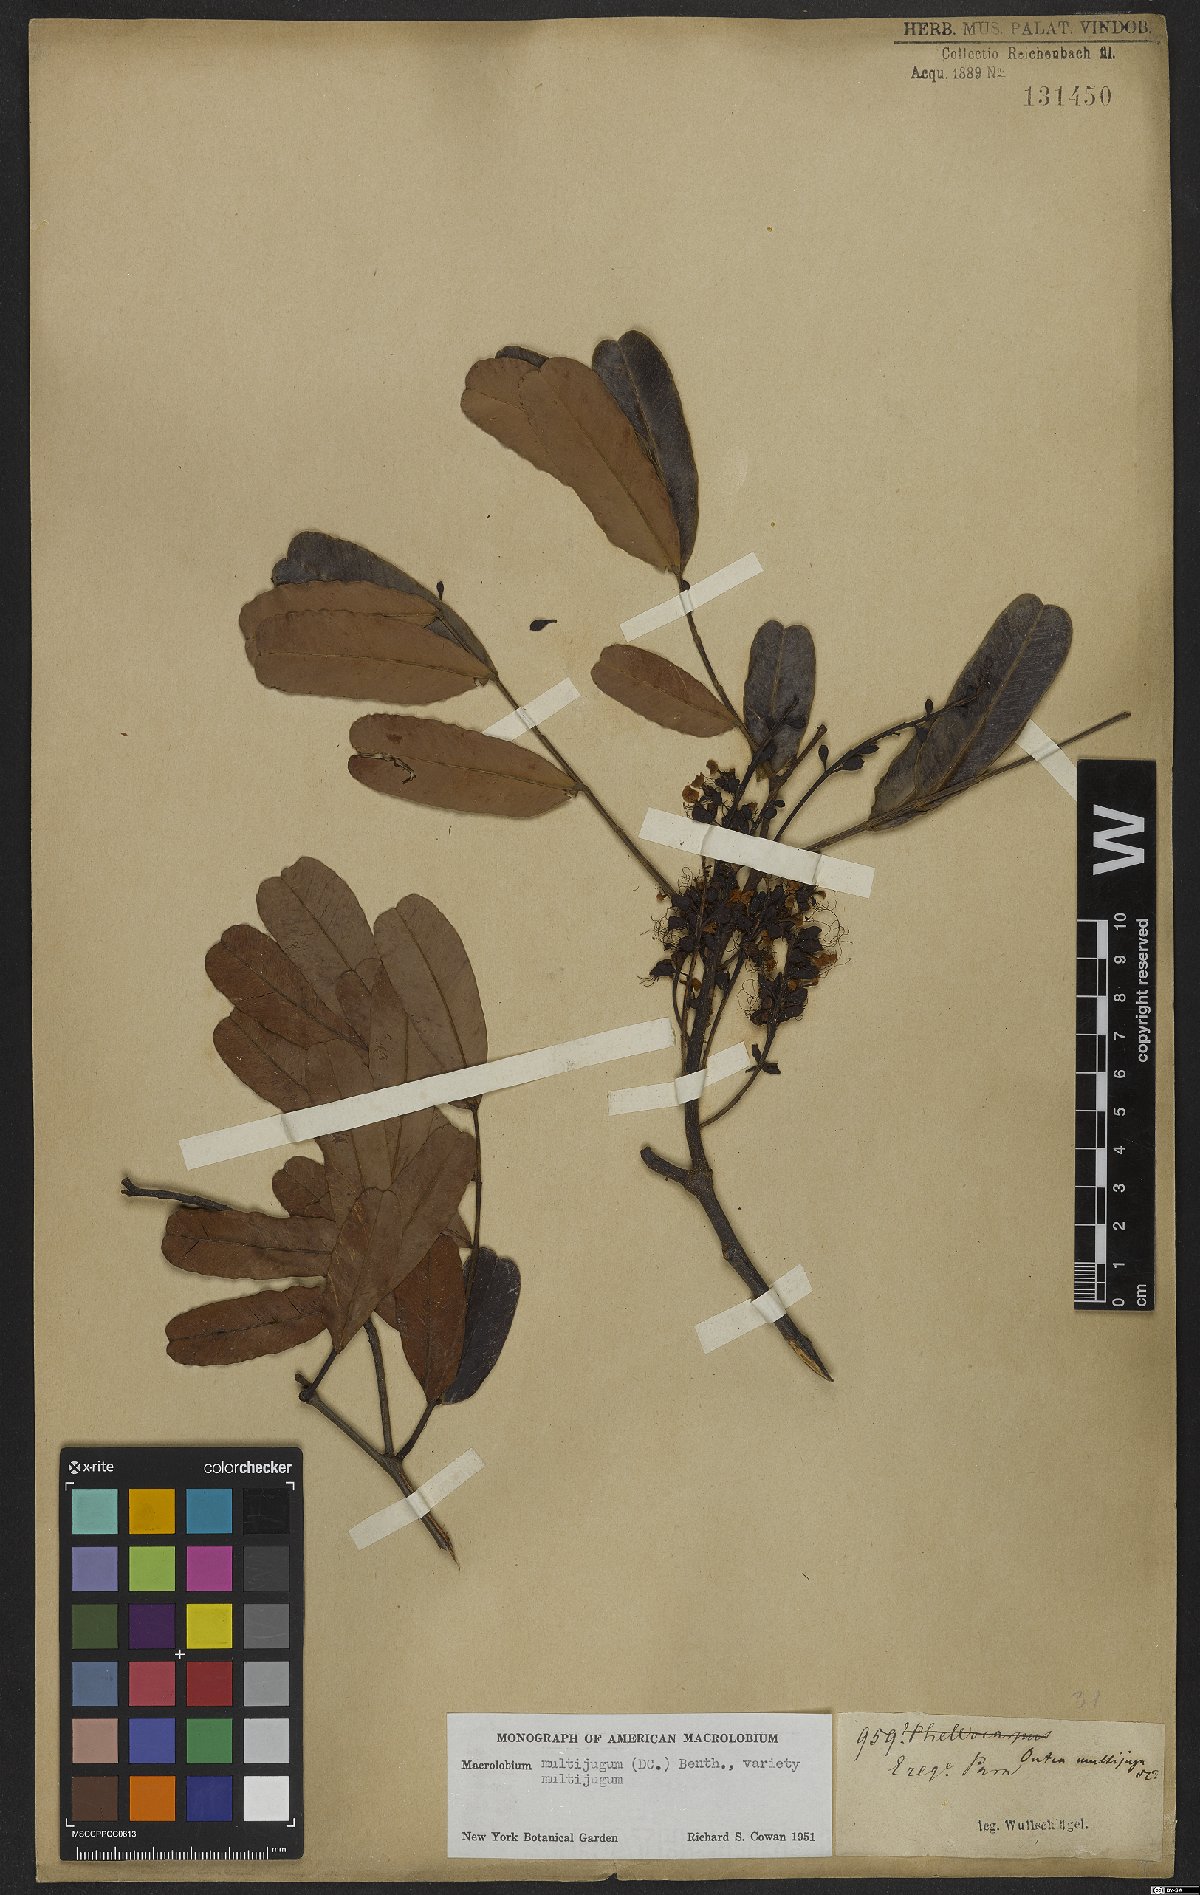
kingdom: Plantae
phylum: Tracheophyta
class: Magnoliopsida
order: Fabales
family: Fabaceae
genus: Macrolobium
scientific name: Macrolobium multijugum
